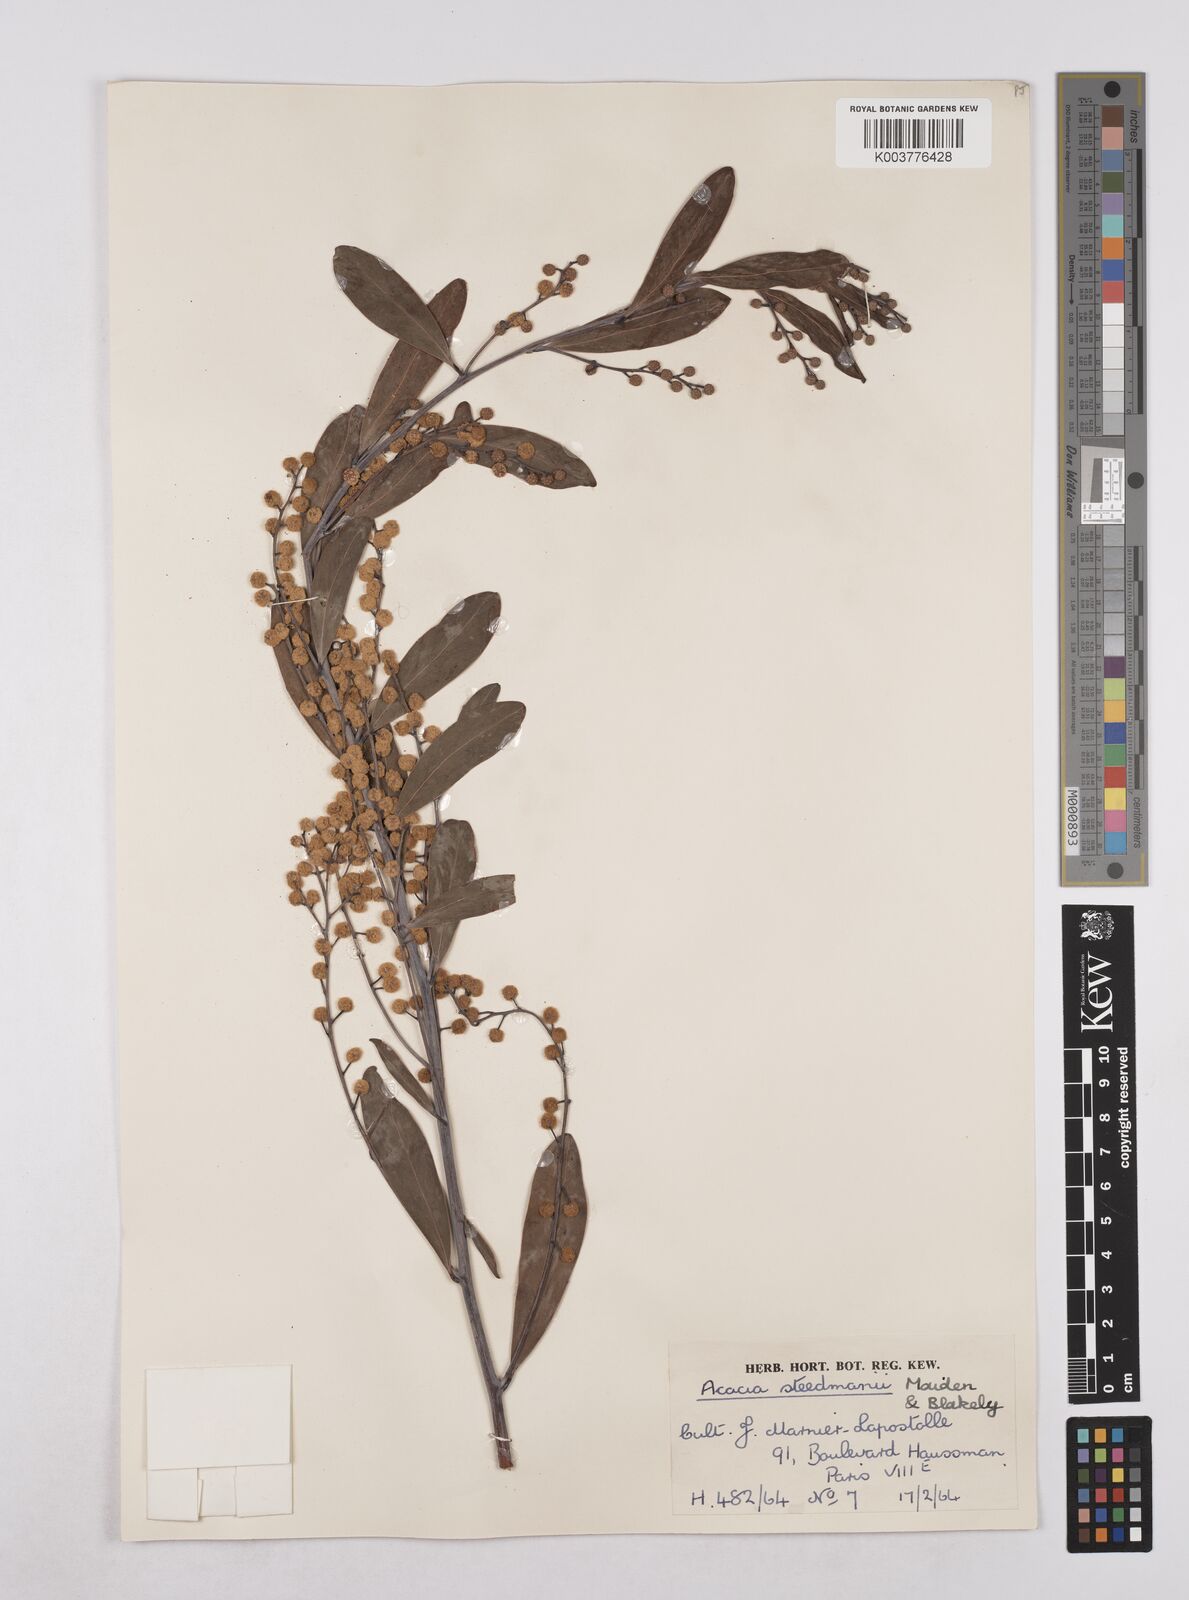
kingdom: Plantae
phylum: Tracheophyta
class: Magnoliopsida
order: Fabales
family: Fabaceae
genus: Acacia
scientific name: Acacia steedmanii
